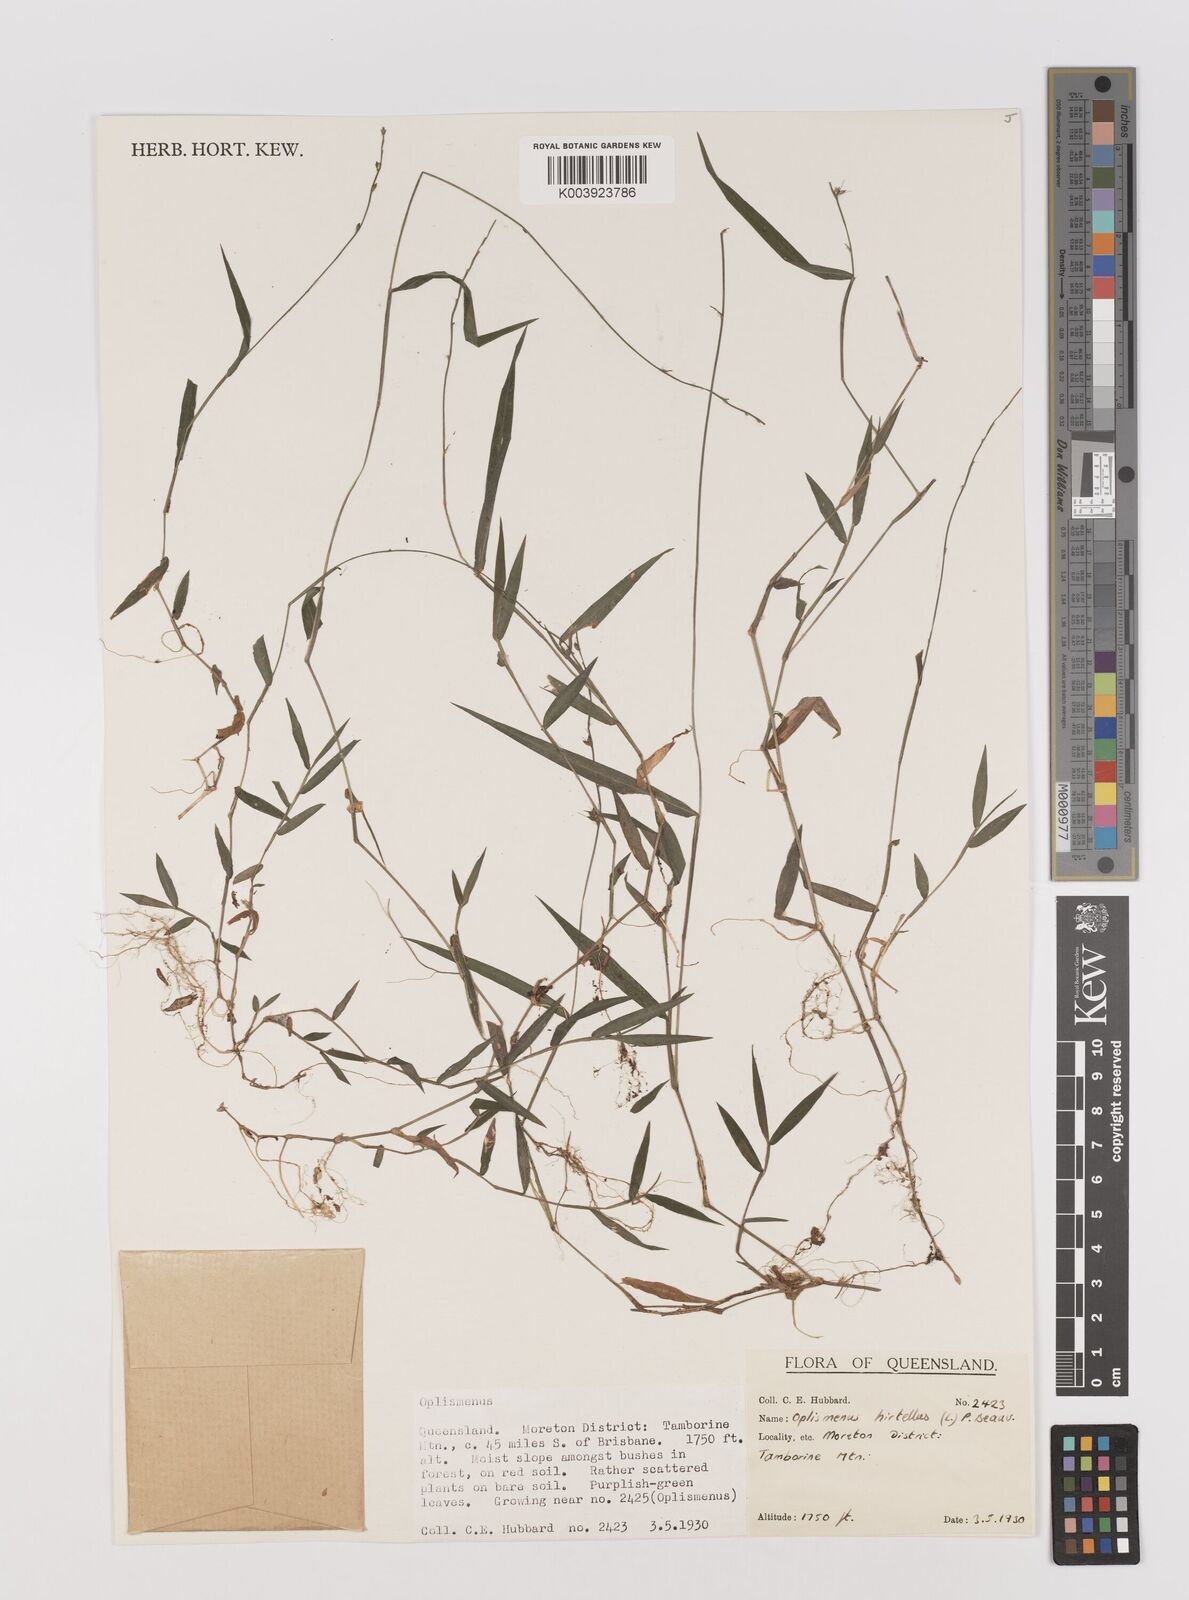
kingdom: Plantae
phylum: Tracheophyta
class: Liliopsida
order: Poales
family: Poaceae
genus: Oplismenus
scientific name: Oplismenus hirtellus
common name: Basketgrass
